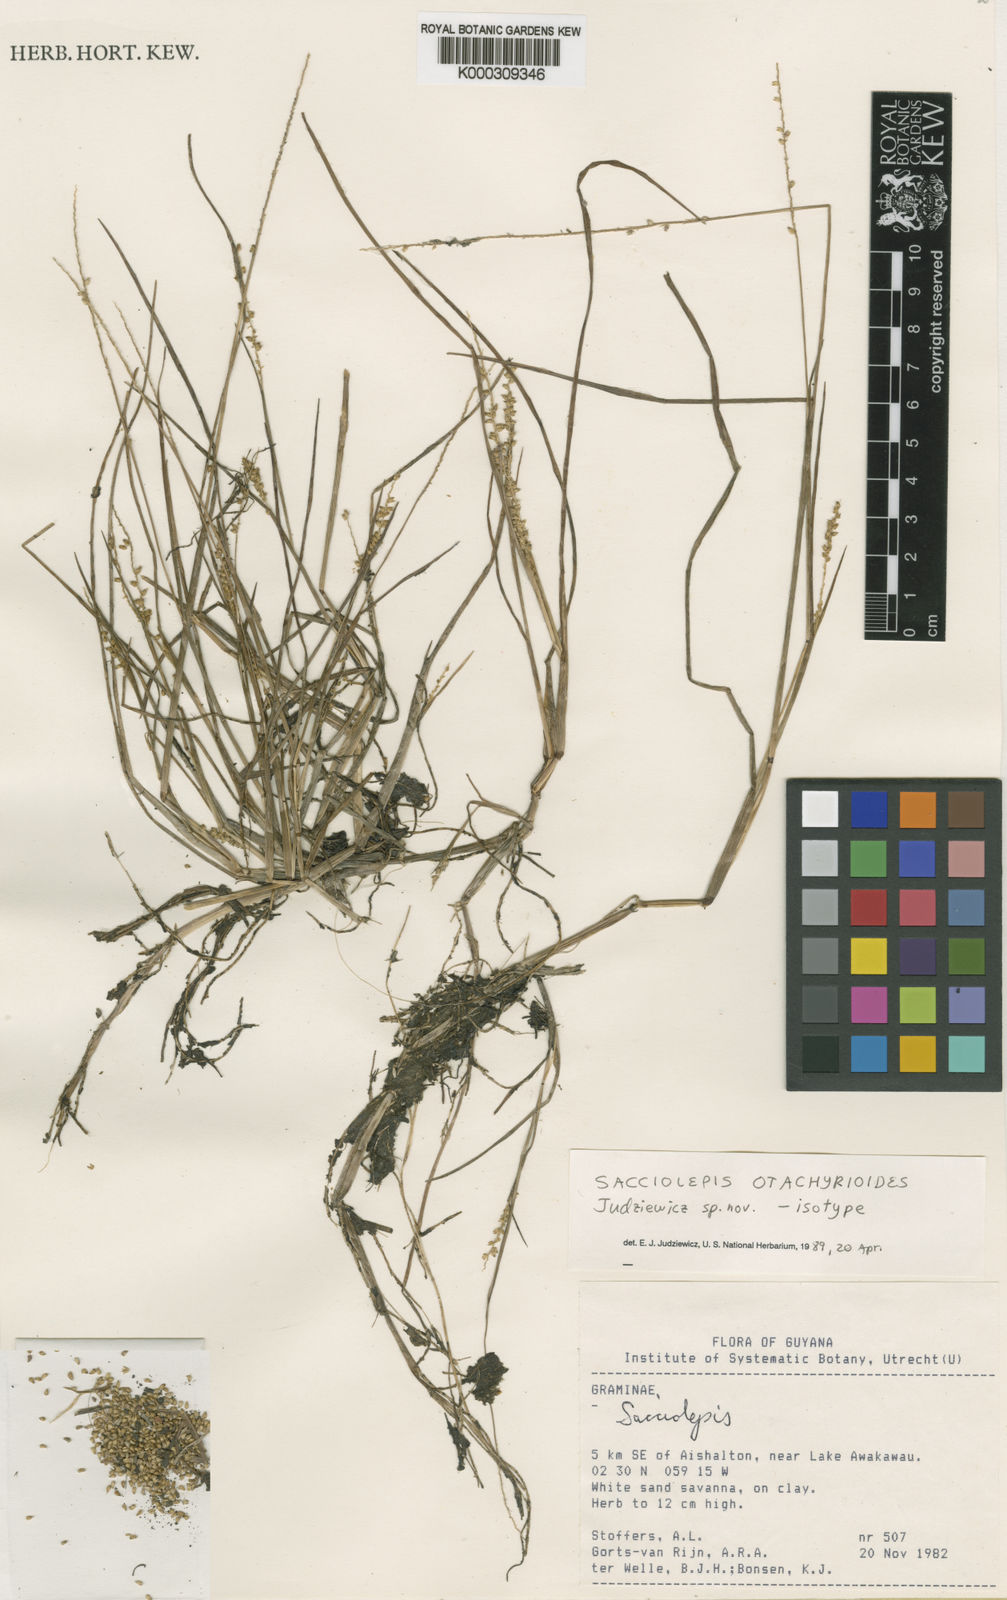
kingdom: Plantae
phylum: Tracheophyta
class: Liliopsida
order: Poales
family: Poaceae
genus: Sacciolepis
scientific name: Sacciolepis otachyrioides
